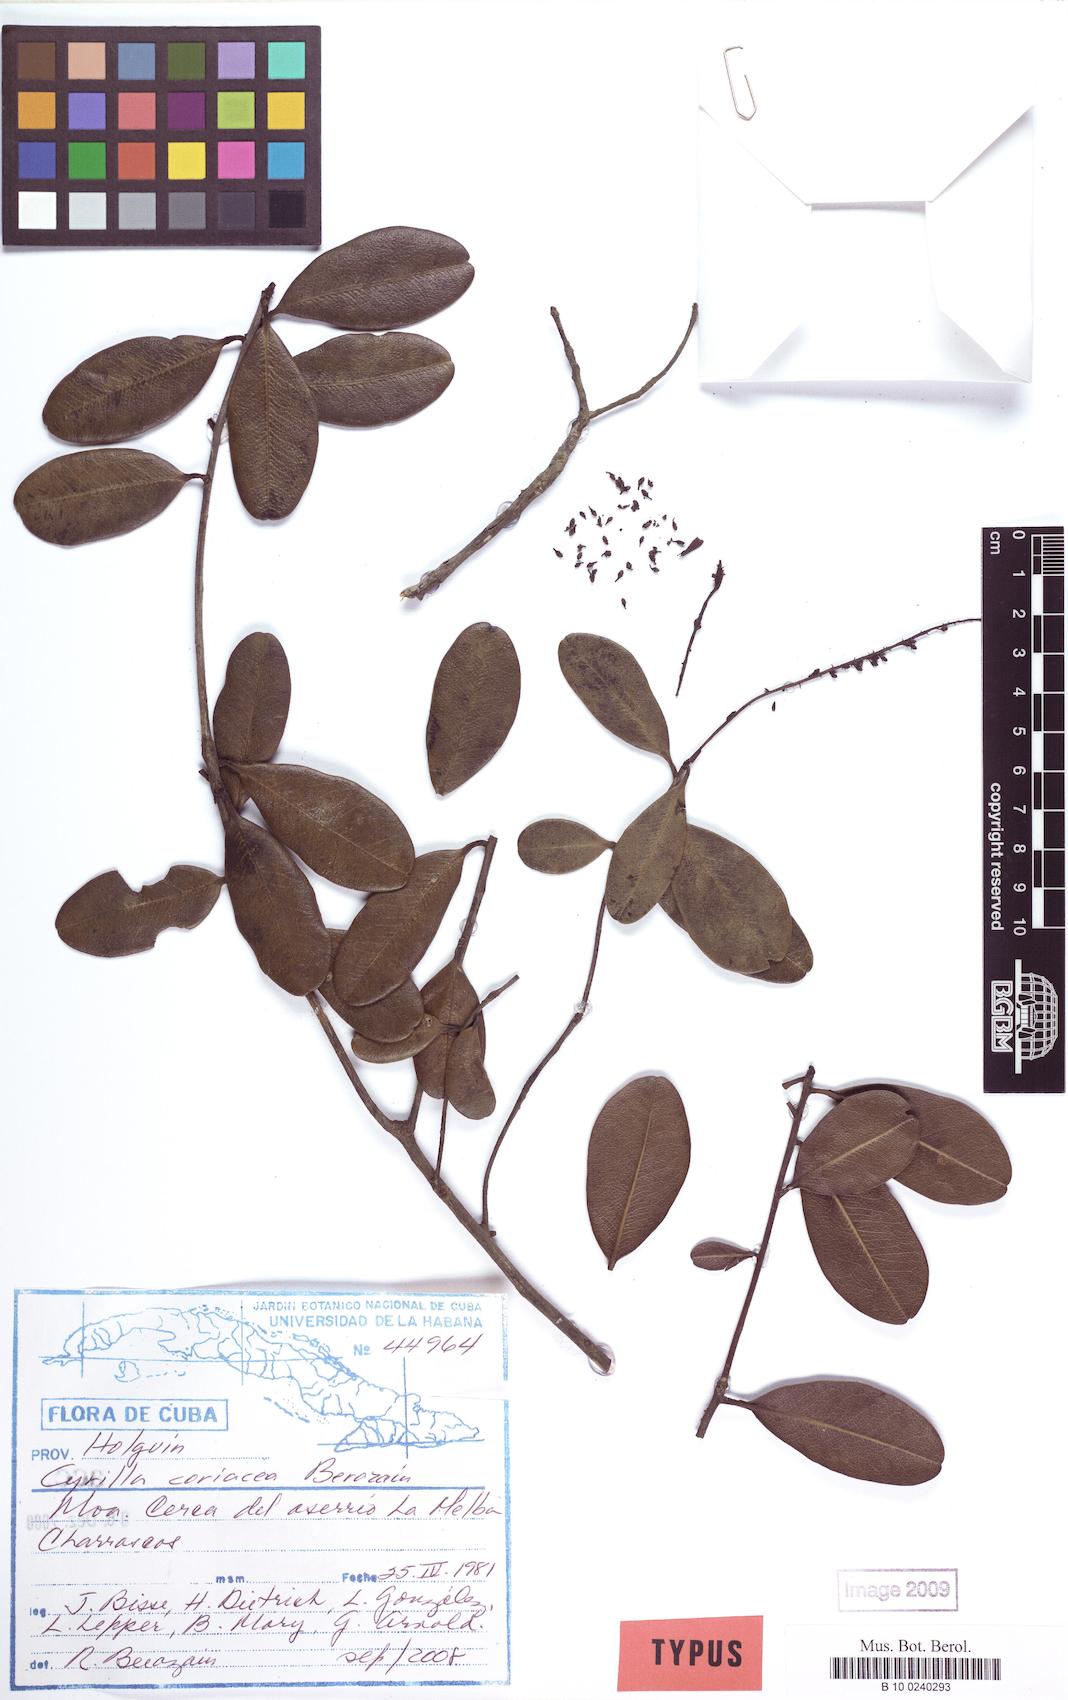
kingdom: Plantae
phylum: Tracheophyta
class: Magnoliopsida
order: Ericales
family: Cyrillaceae
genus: Cyrilla
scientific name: Cyrilla coriacea
